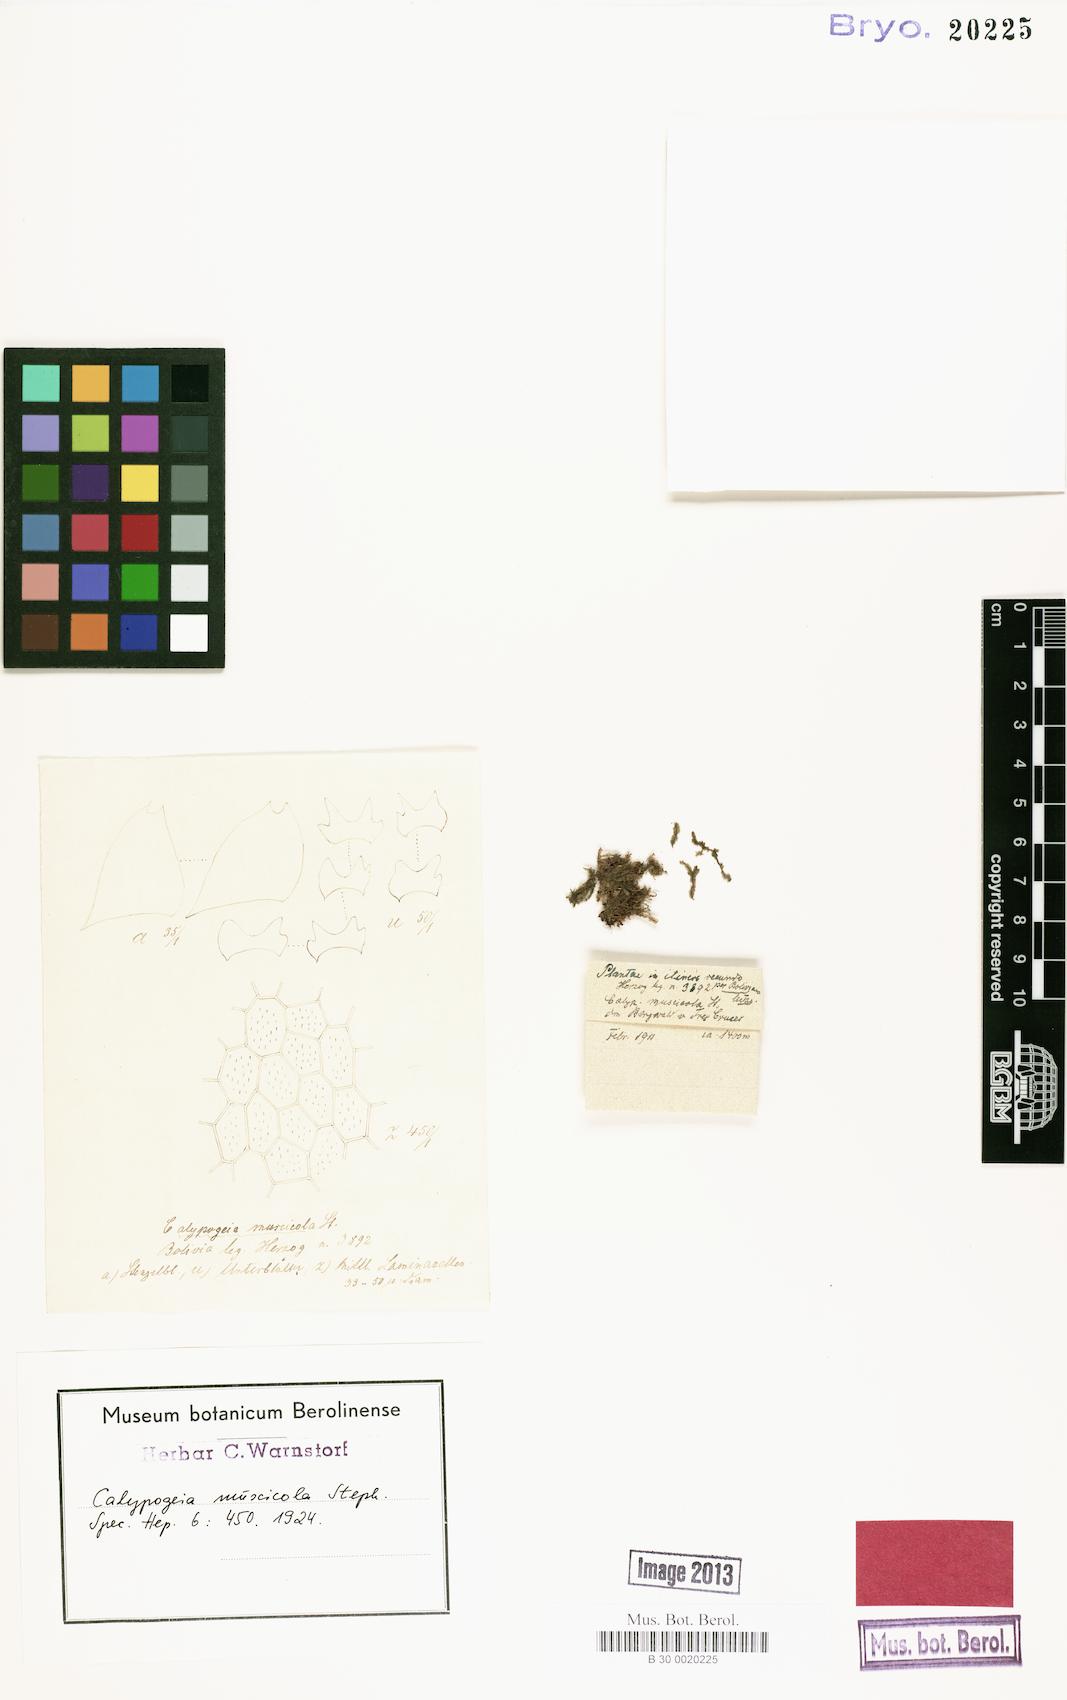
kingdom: Plantae
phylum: Marchantiophyta
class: Jungermanniopsida
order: Jungermanniales
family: Calypogeiaceae
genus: Calypogeia
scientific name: Calypogeia peruviana
